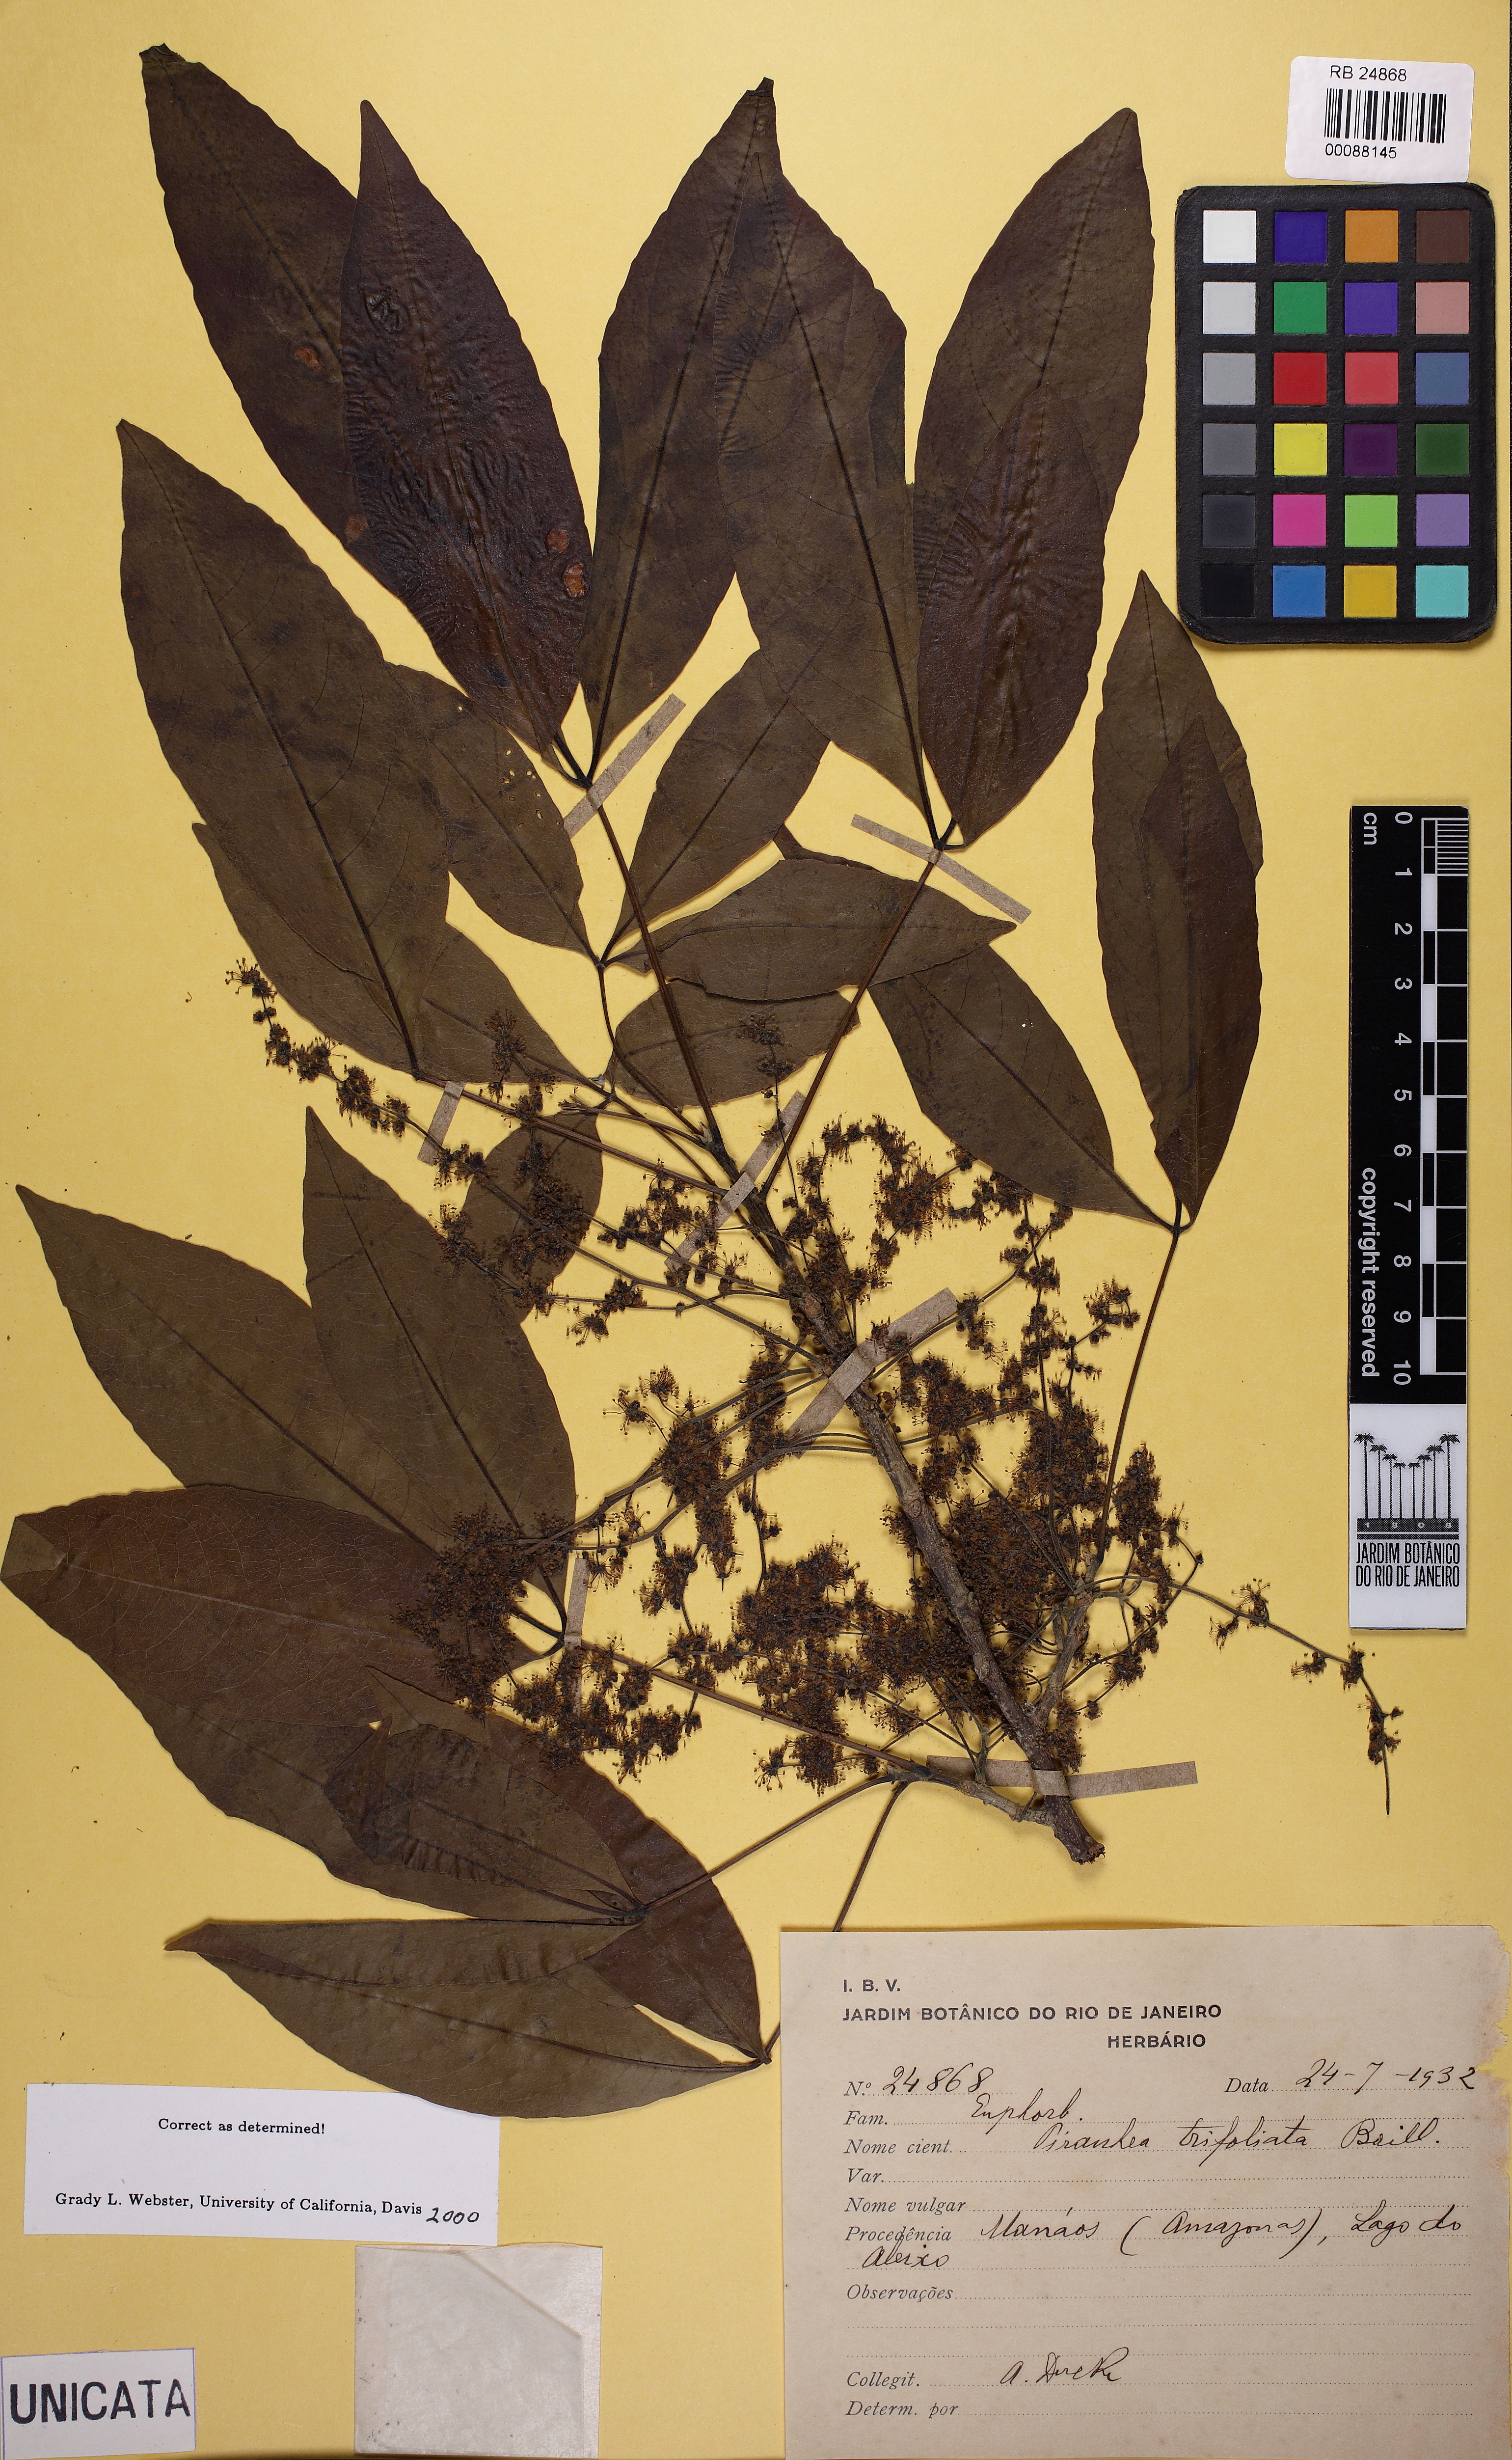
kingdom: Plantae
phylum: Tracheophyta
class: Magnoliopsida
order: Malpighiales
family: Picrodendraceae
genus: Piranhea
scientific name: Piranhea trifoliata
